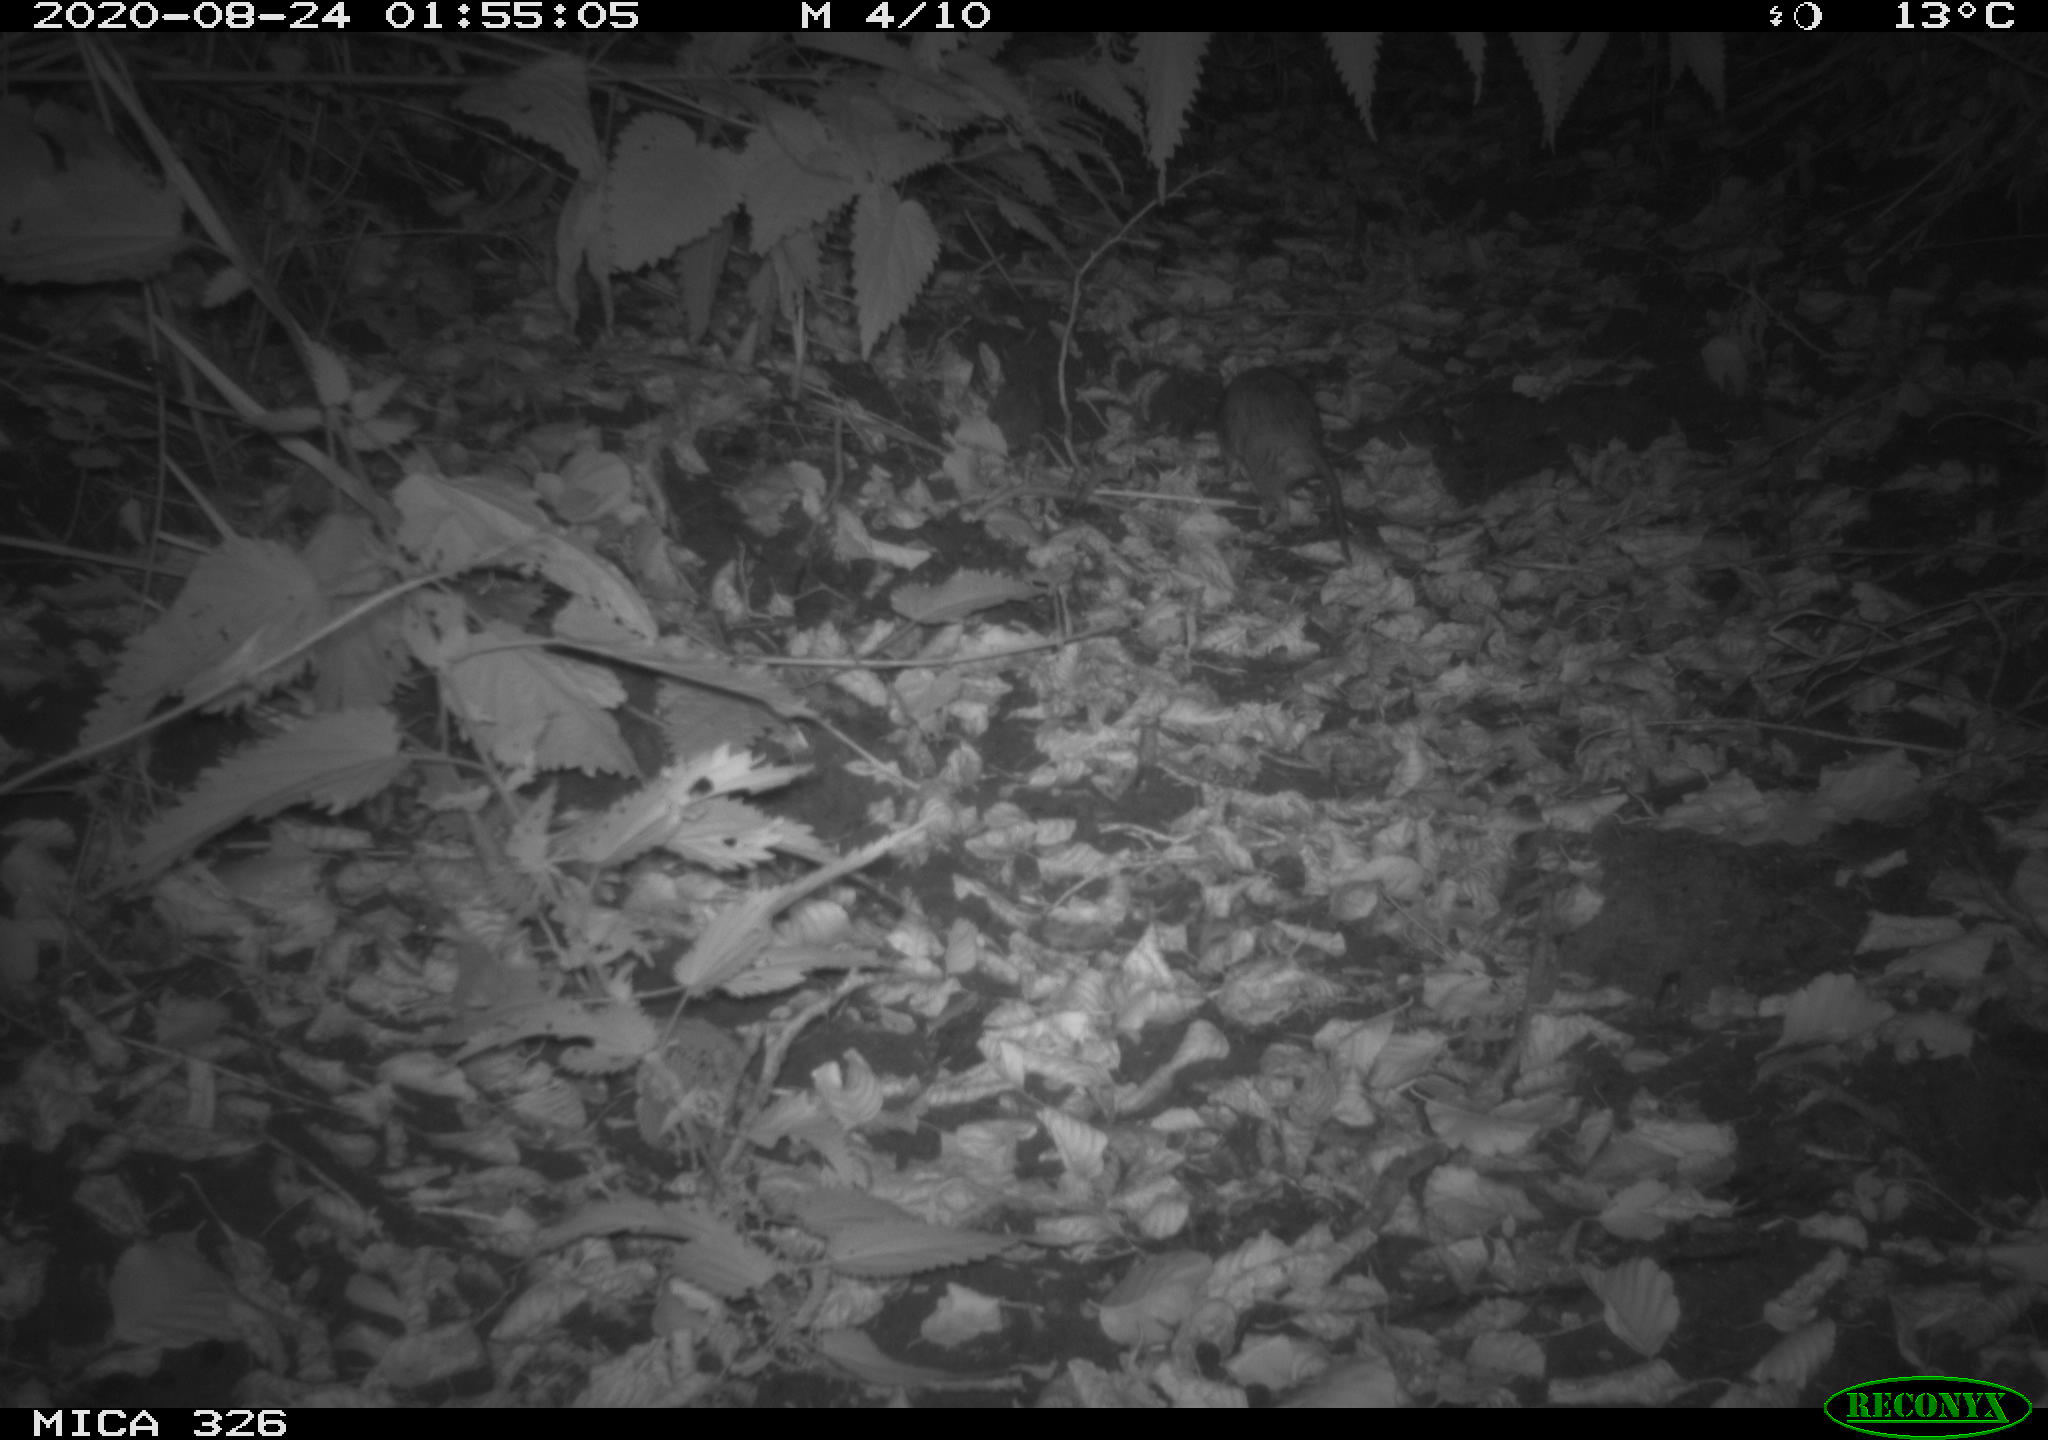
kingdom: Animalia
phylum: Chordata
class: Mammalia
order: Rodentia
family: Myocastoridae
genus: Myocastor
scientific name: Myocastor coypus
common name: Coypu
